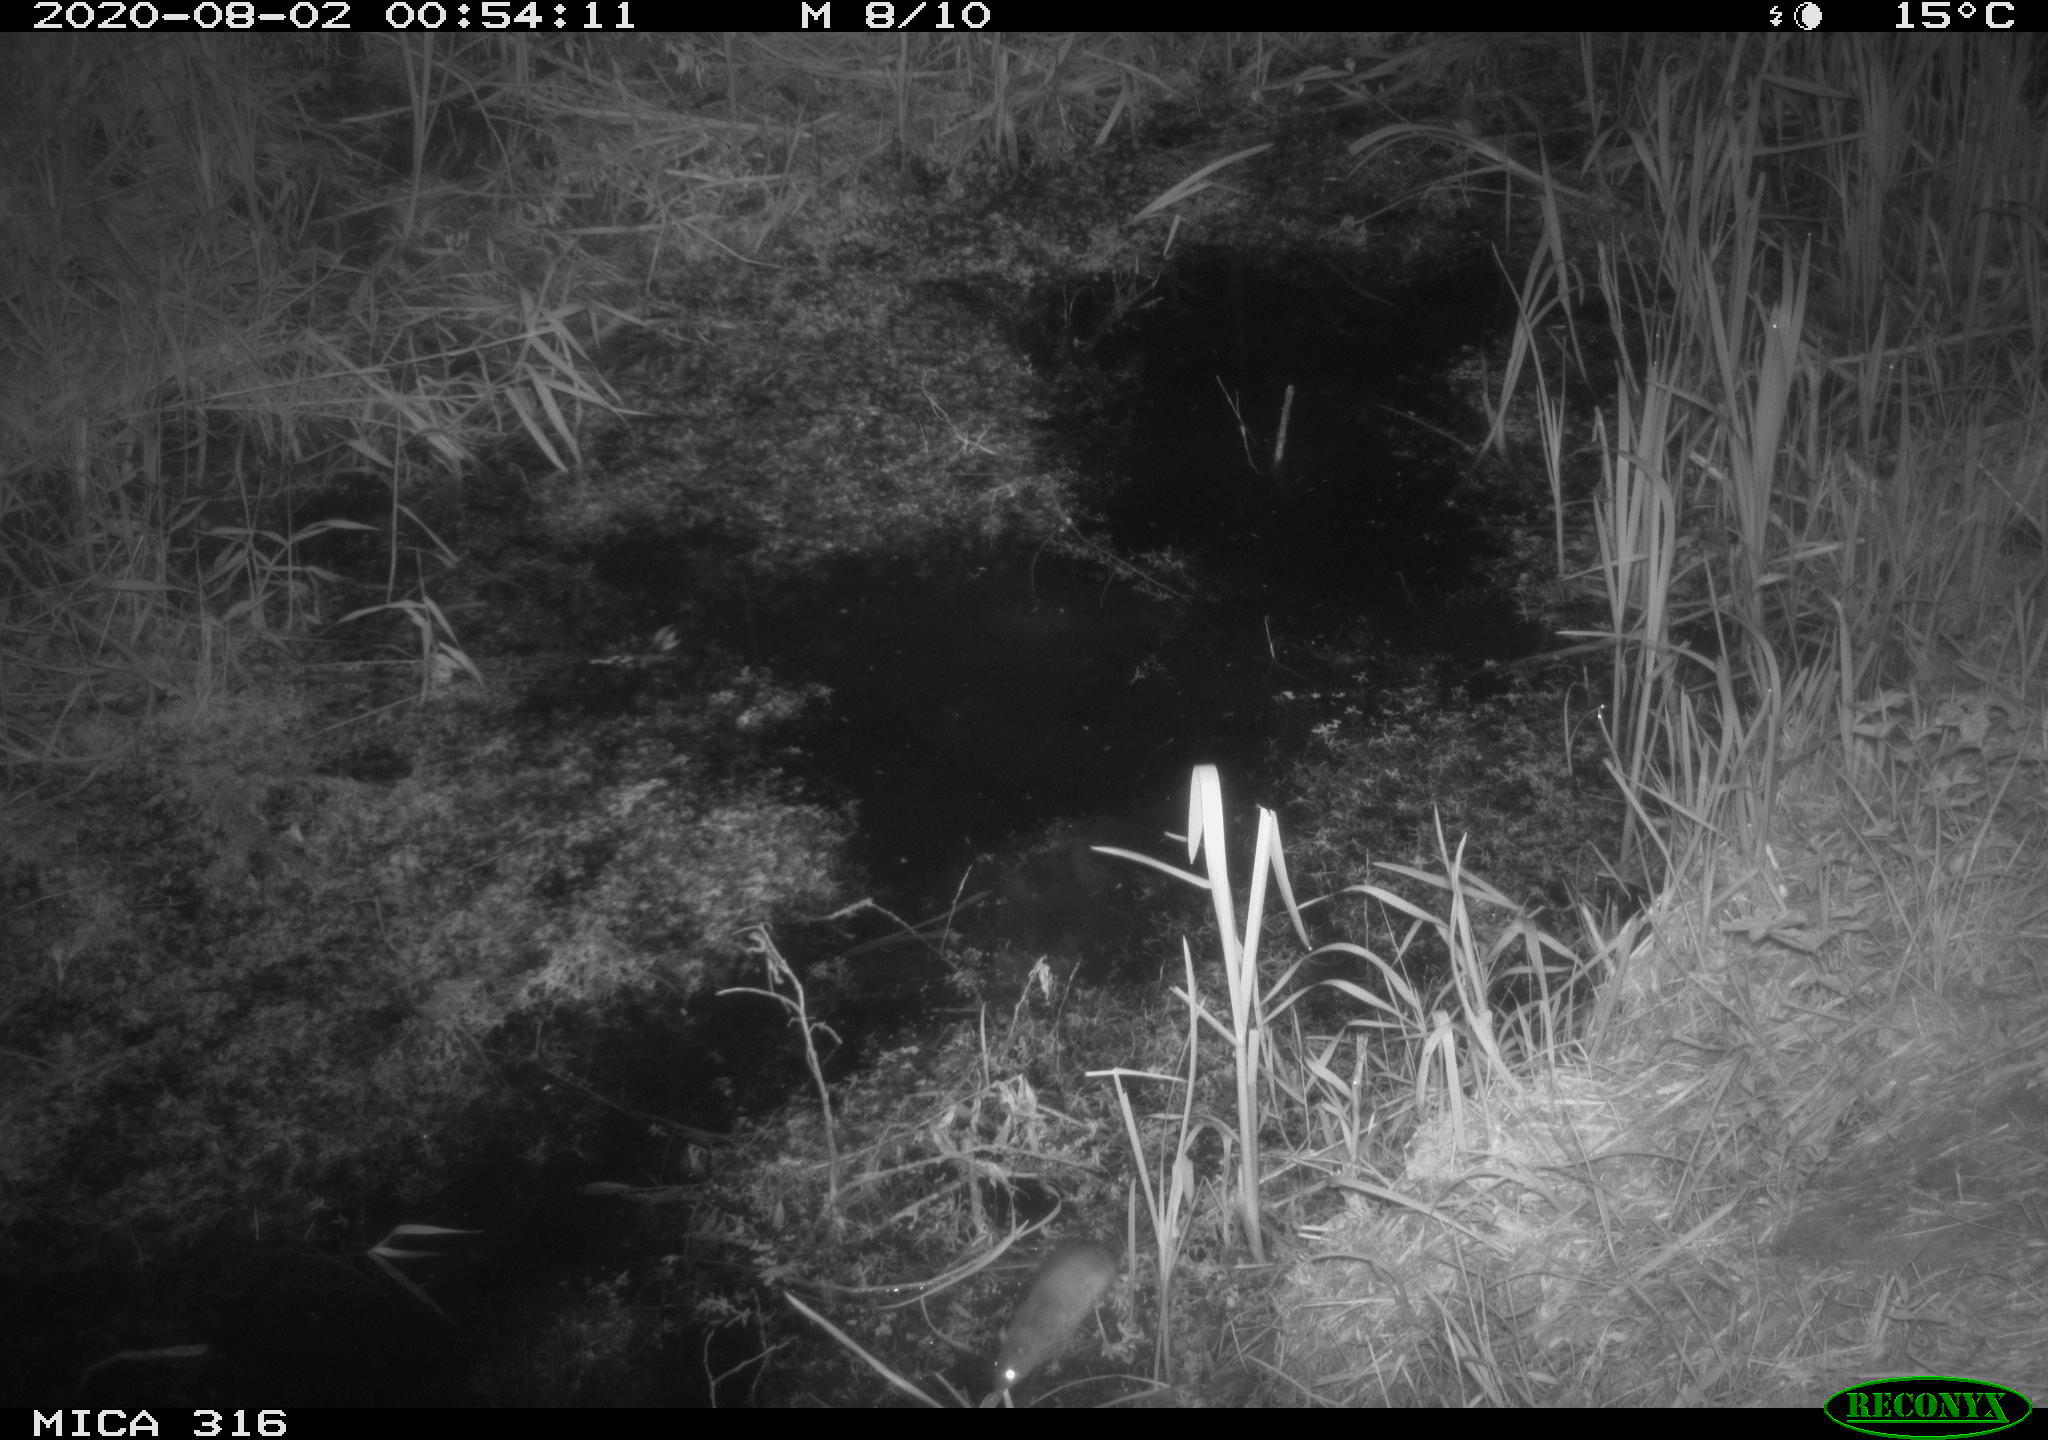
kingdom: Animalia
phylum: Chordata
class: Mammalia
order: Rodentia
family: Muridae
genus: Rattus
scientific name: Rattus norvegicus
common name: Brown rat
